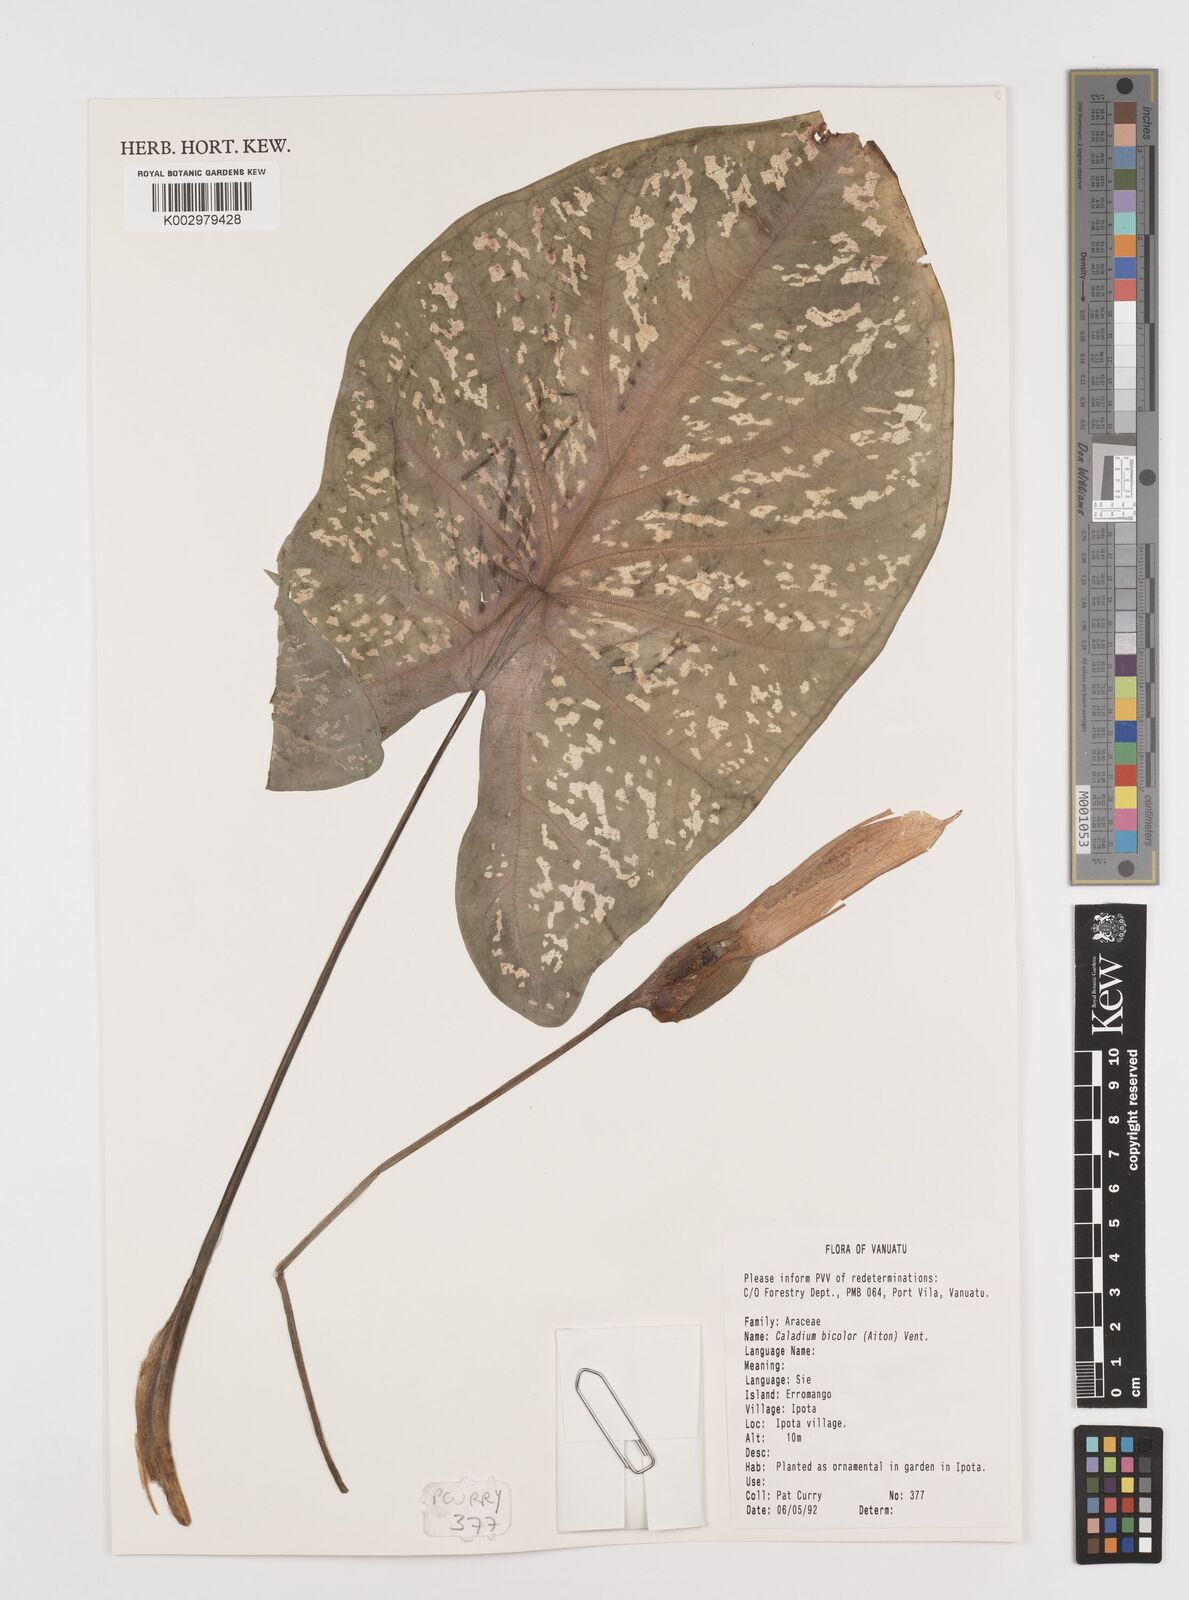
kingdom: Plantae
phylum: Tracheophyta
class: Liliopsida
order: Alismatales
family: Araceae
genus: Caladium
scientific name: Caladium bicolor
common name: Artist's pallet
